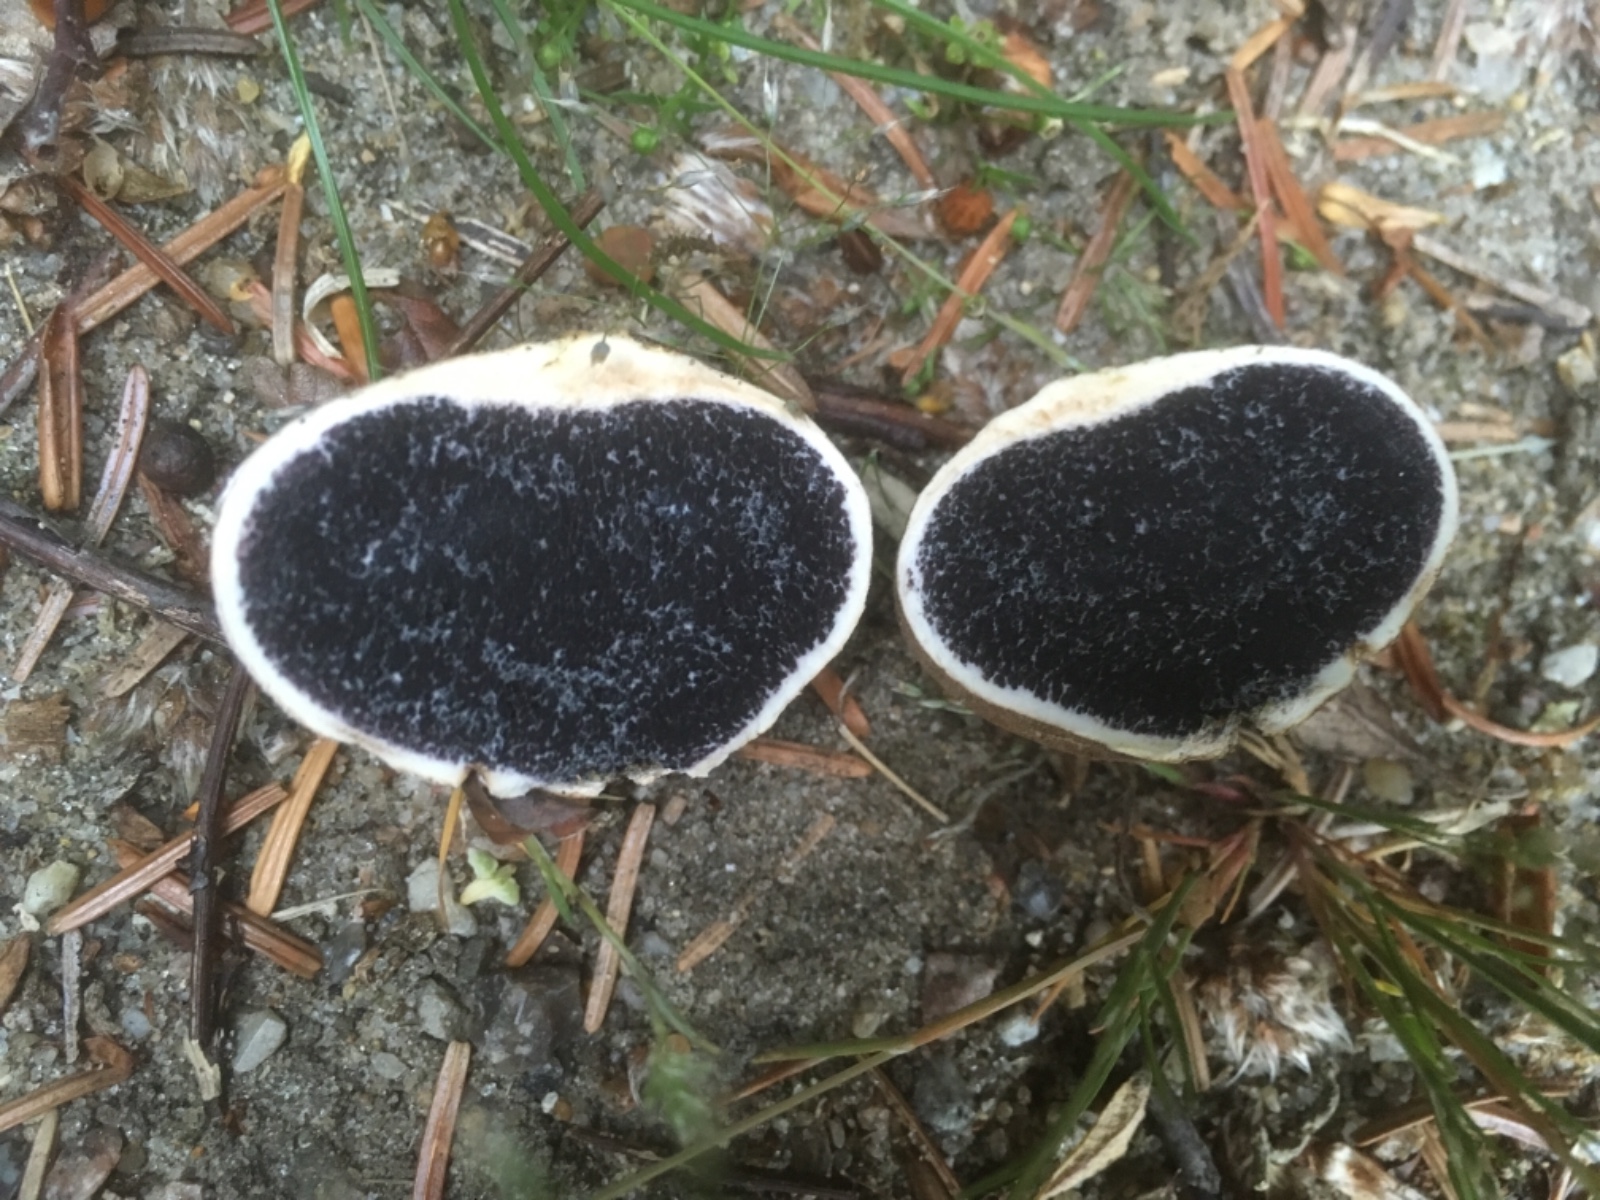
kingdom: Fungi
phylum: Basidiomycota
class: Agaricomycetes
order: Boletales
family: Sclerodermataceae
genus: Scleroderma
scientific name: Scleroderma bovista
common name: bovist-bruskbold
